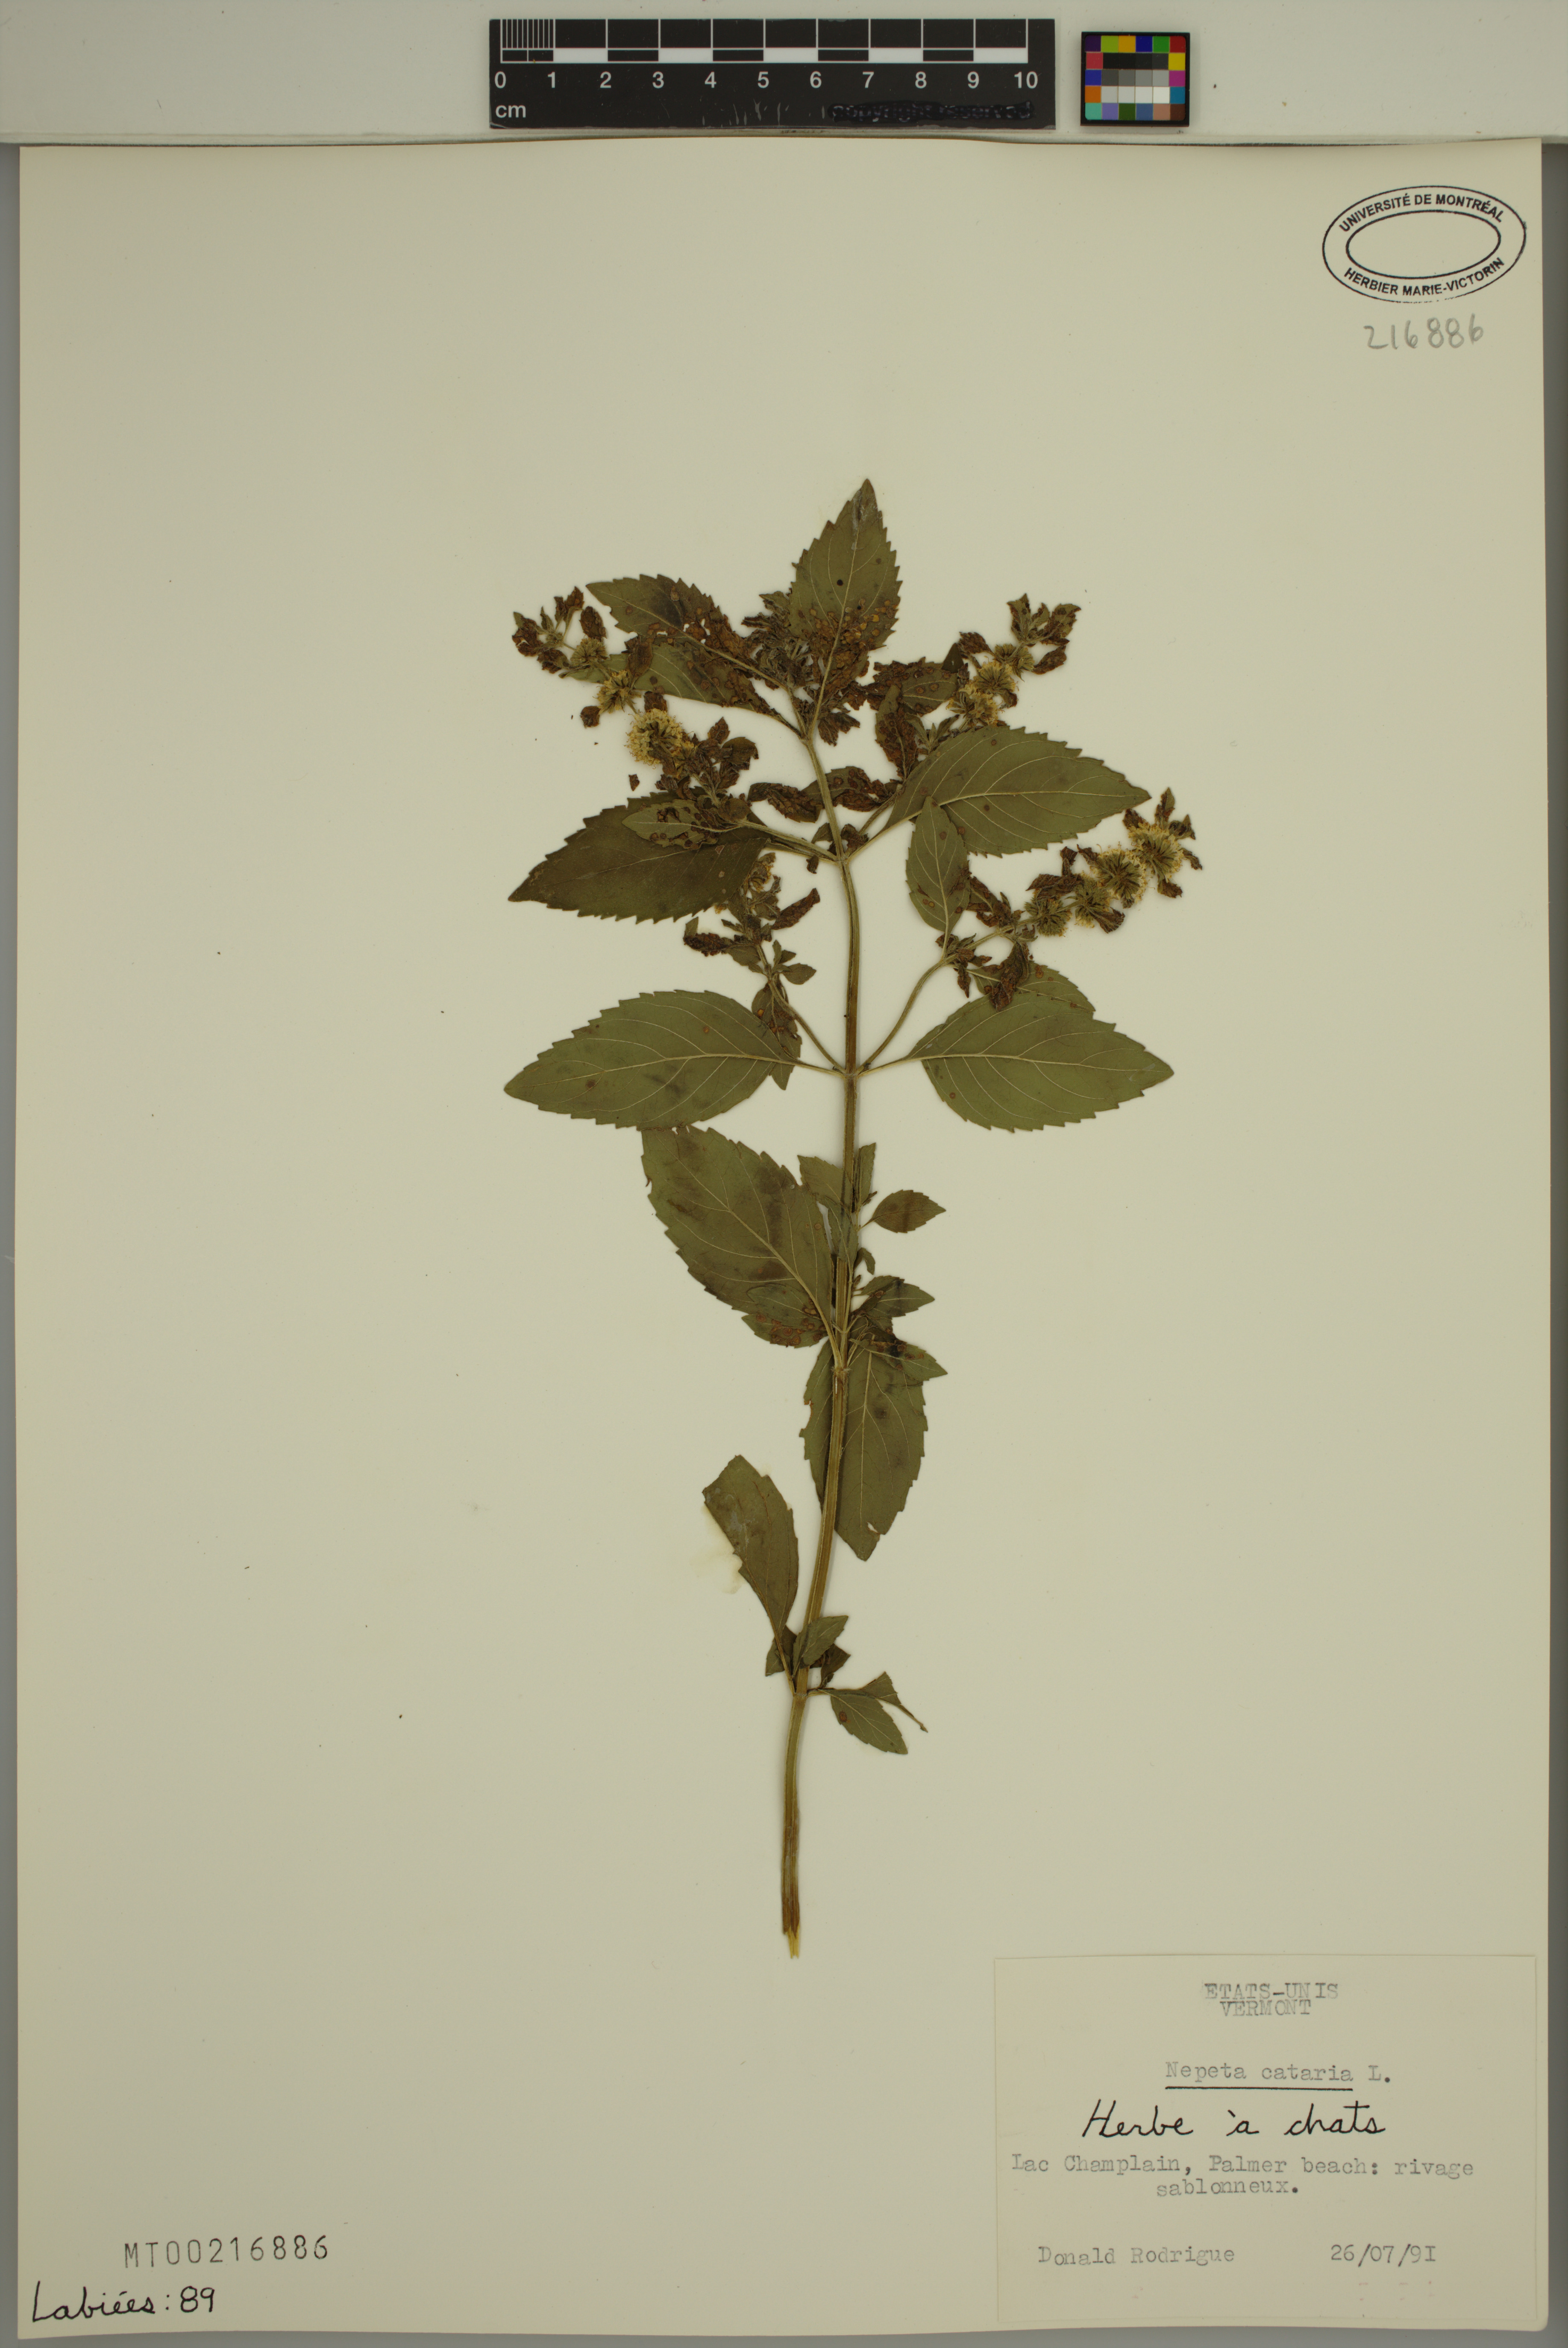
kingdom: Plantae
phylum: Tracheophyta
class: Magnoliopsida
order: Lamiales
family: Lamiaceae
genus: Nepeta
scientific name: Nepeta cataria
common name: Catnip
